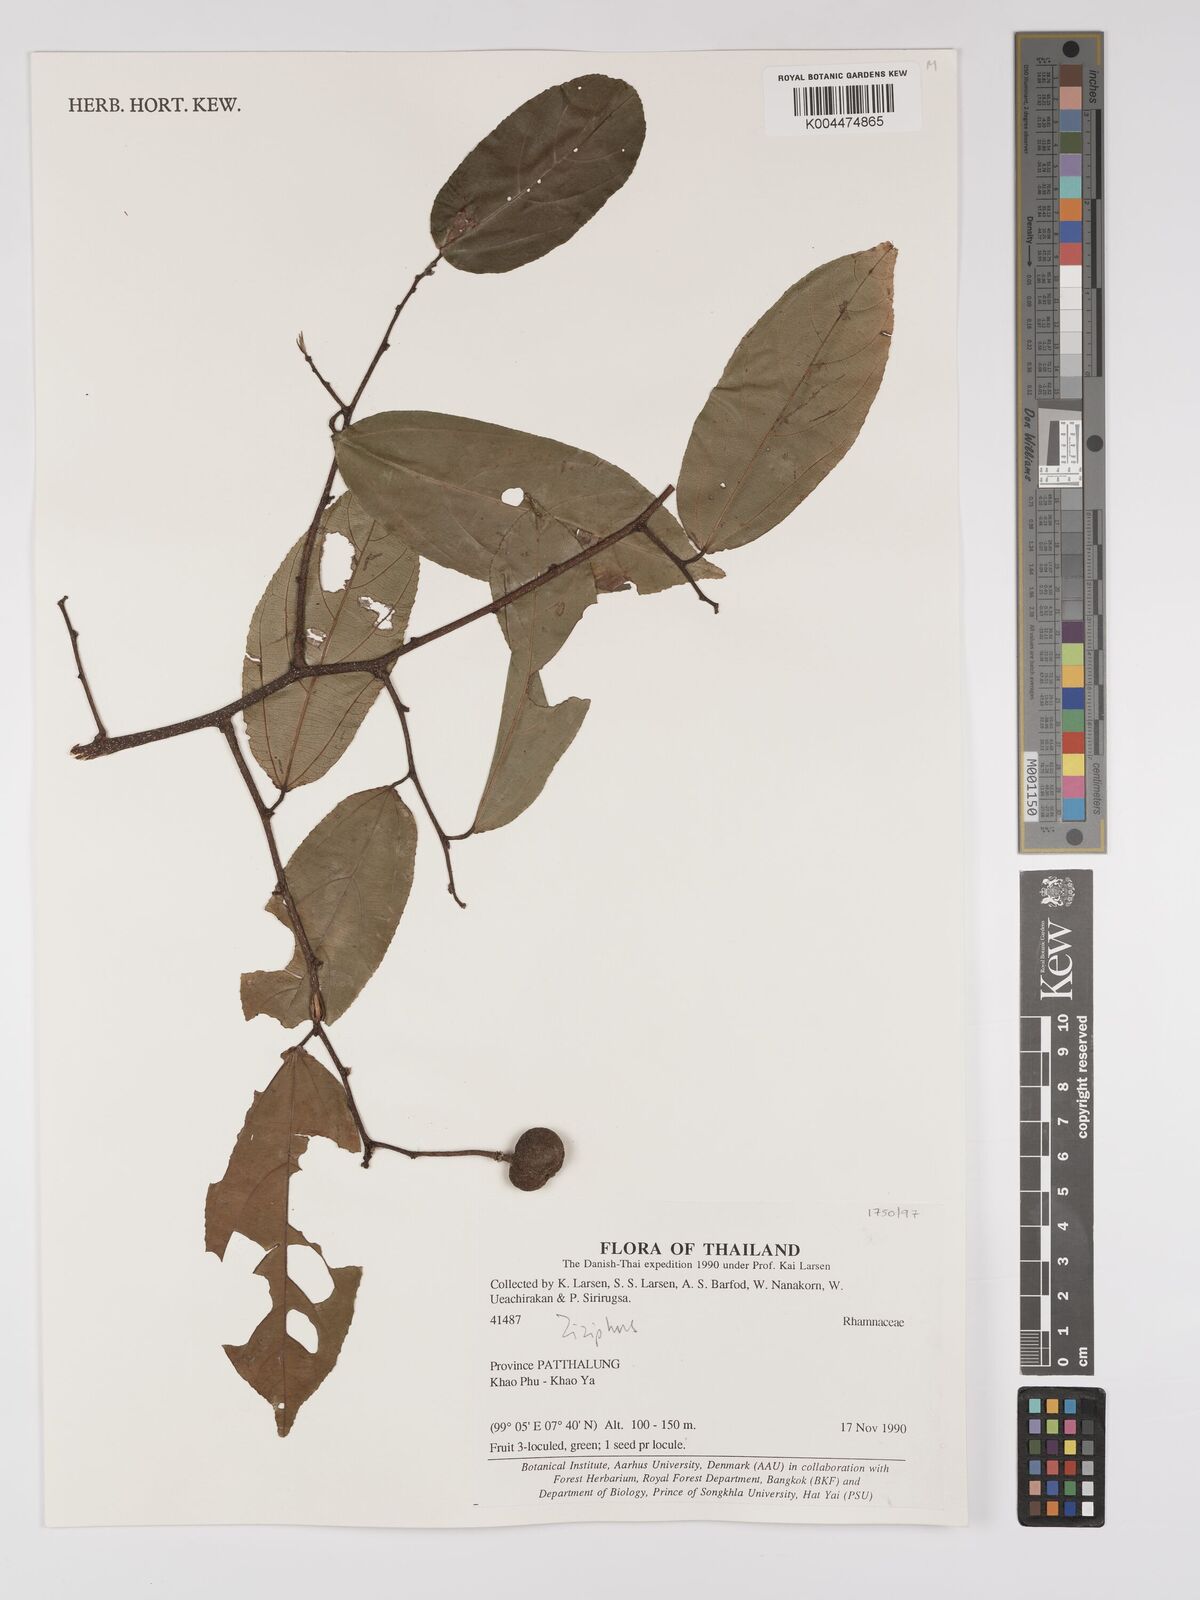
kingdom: Plantae
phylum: Tracheophyta
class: Magnoliopsida
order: Rosales
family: Rhamnaceae
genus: Ziziphus
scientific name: Ziziphus
